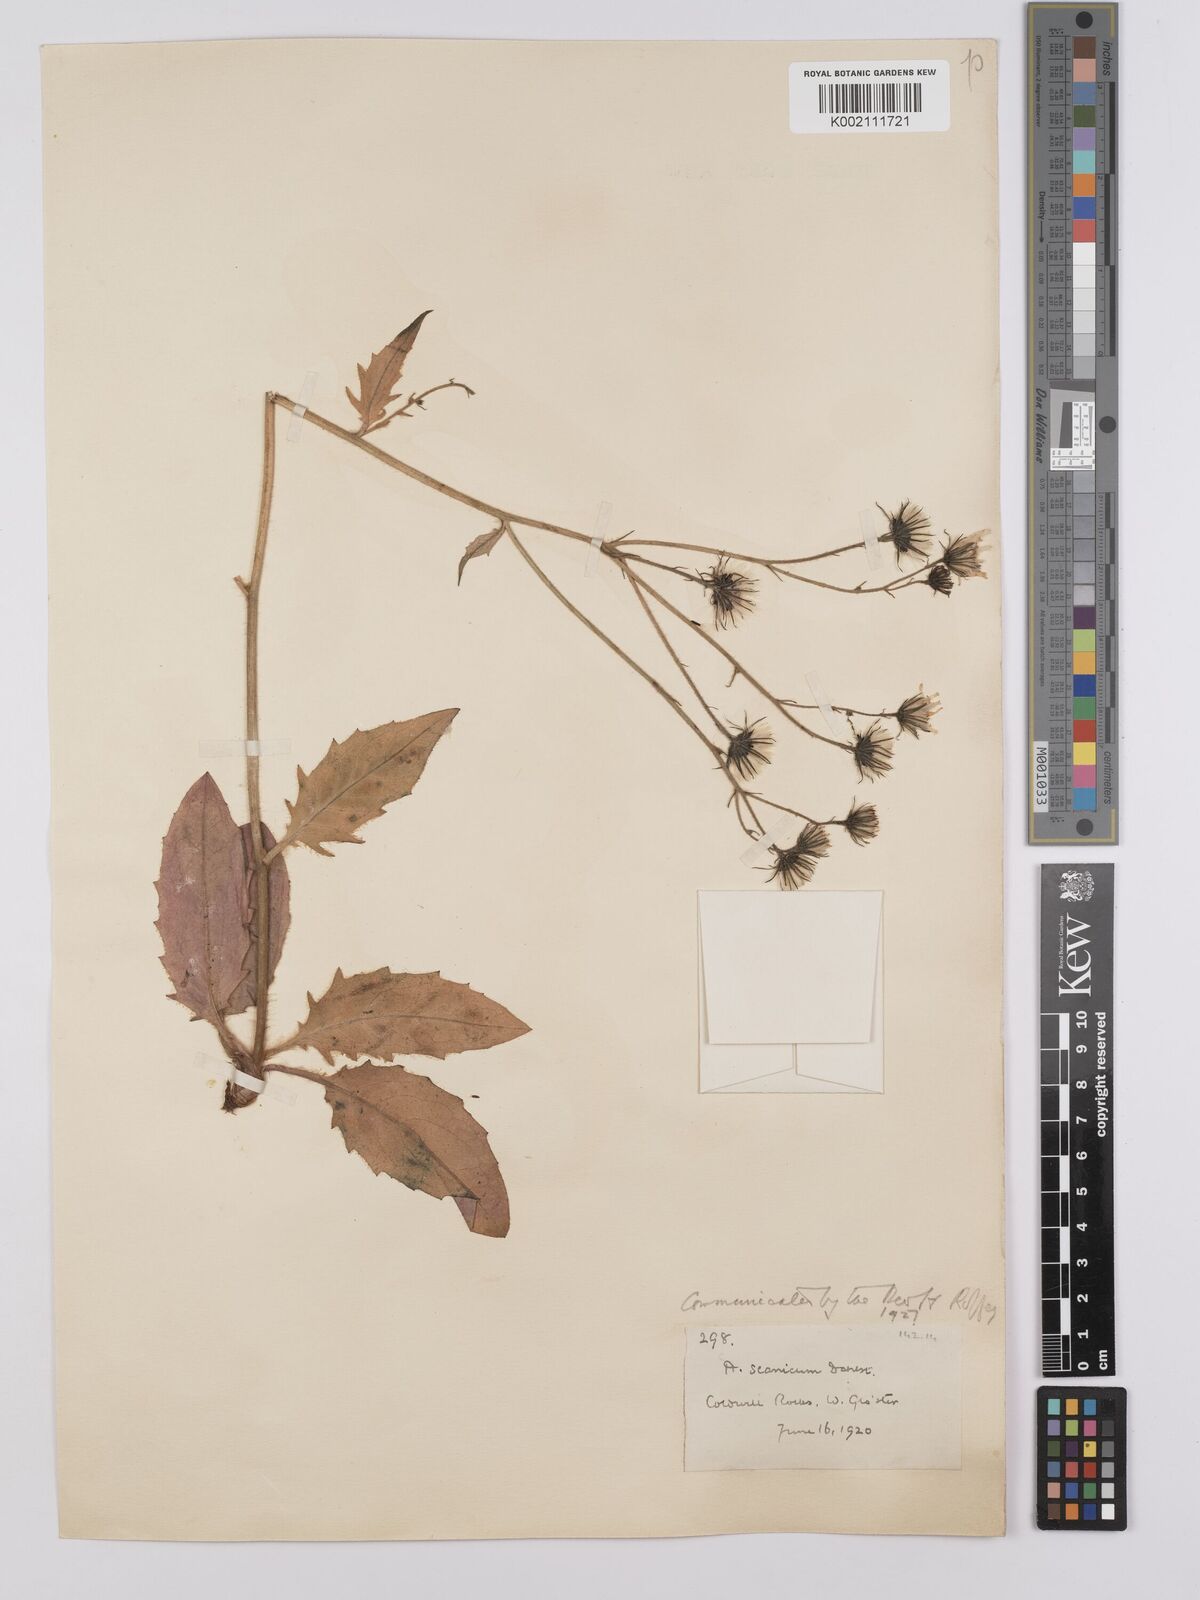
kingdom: Plantae
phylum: Tracheophyta
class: Magnoliopsida
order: Asterales
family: Asteraceae
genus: Hieracium
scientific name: Hieracium
